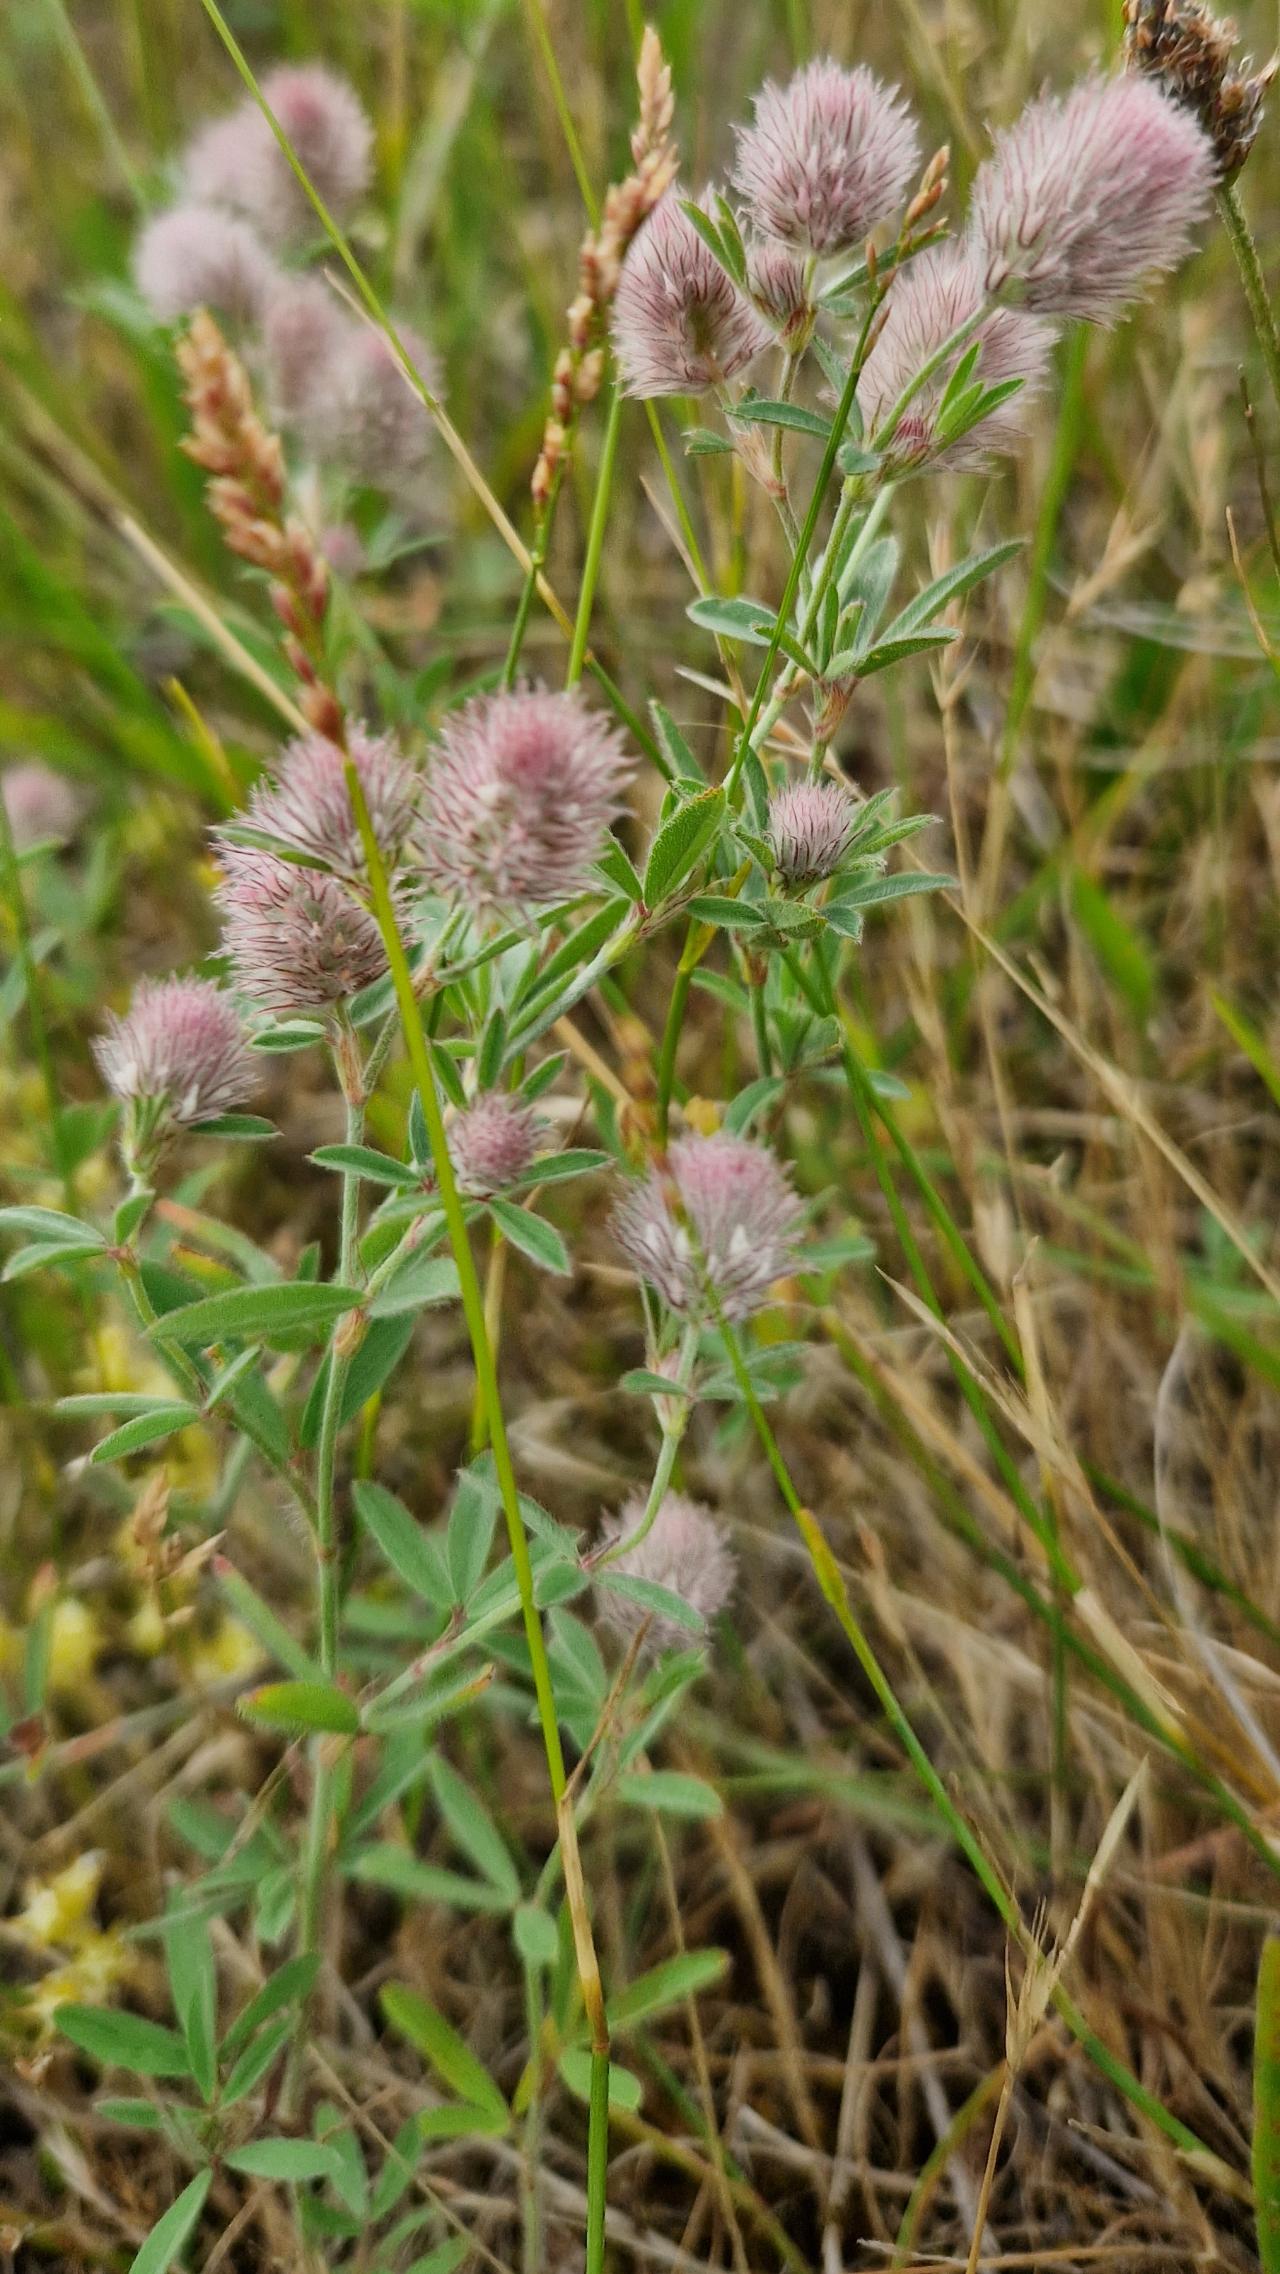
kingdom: Plantae
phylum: Tracheophyta
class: Magnoliopsida
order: Fabales
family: Fabaceae
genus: Trifolium
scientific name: Trifolium arvense
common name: Hare-kløver
